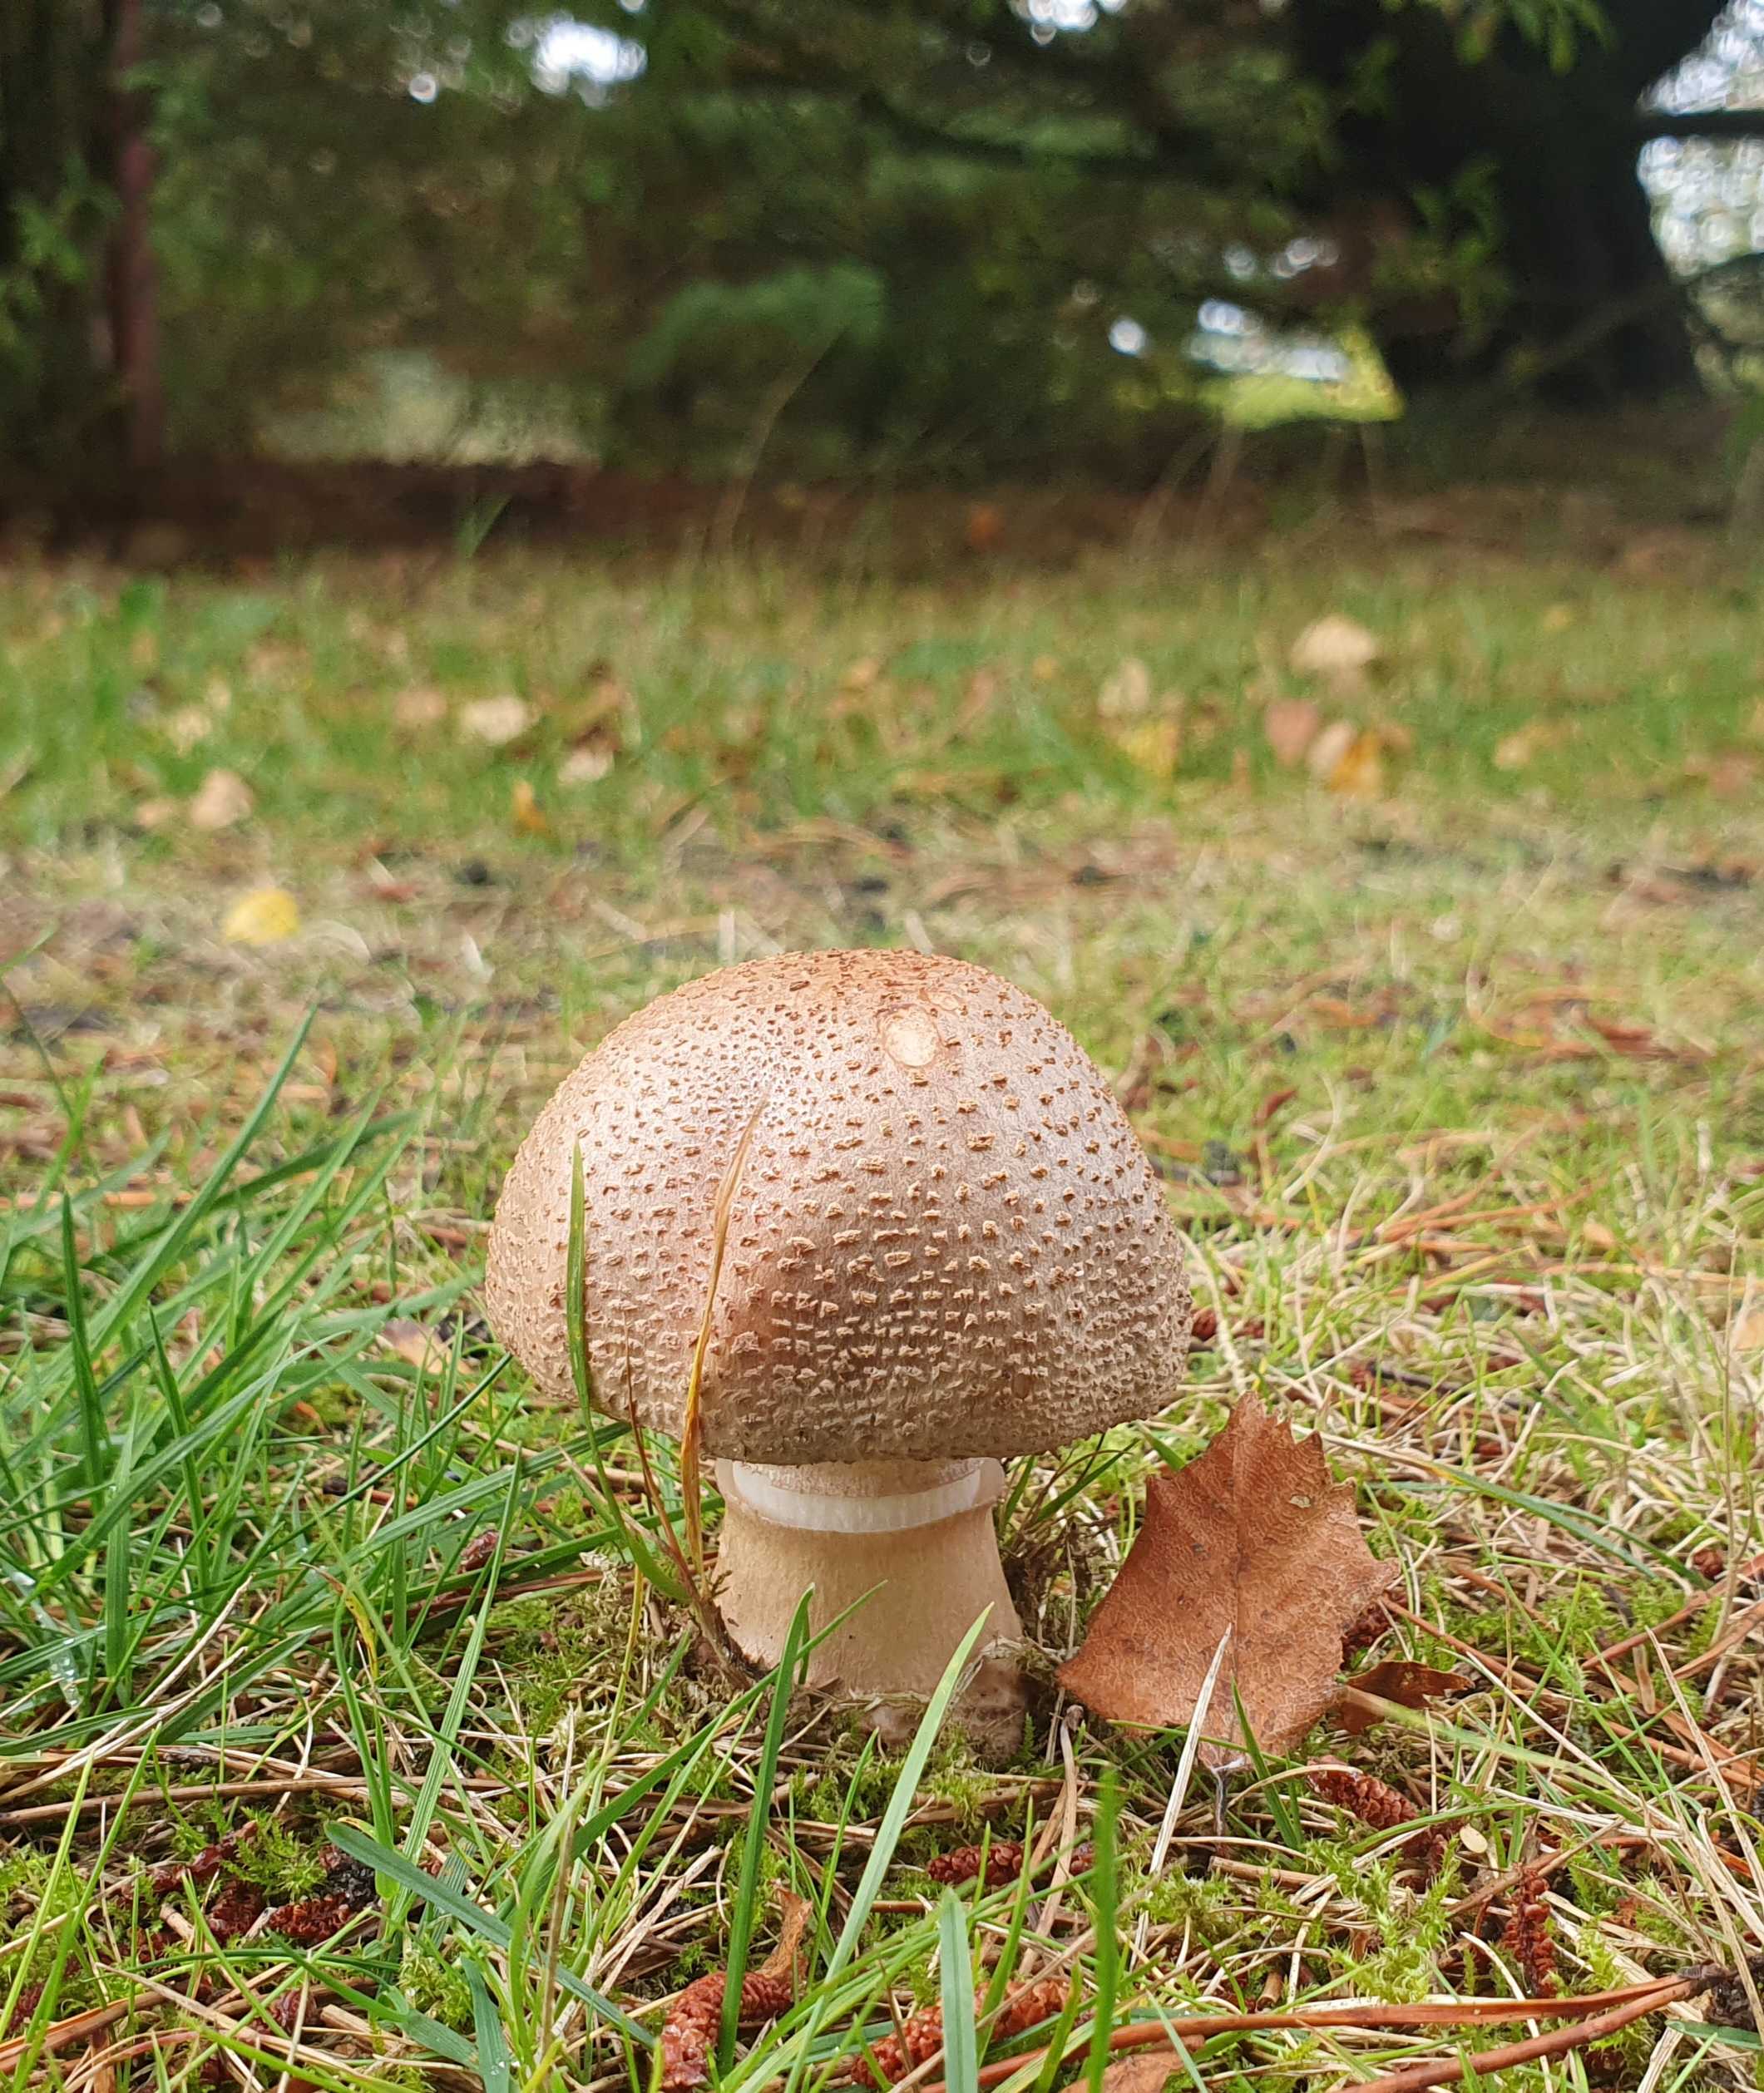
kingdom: Fungi
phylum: Basidiomycota
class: Agaricomycetes
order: Agaricales
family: Amanitaceae
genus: Amanita
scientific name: Amanita rubescens
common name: rødmende fluesvamp
